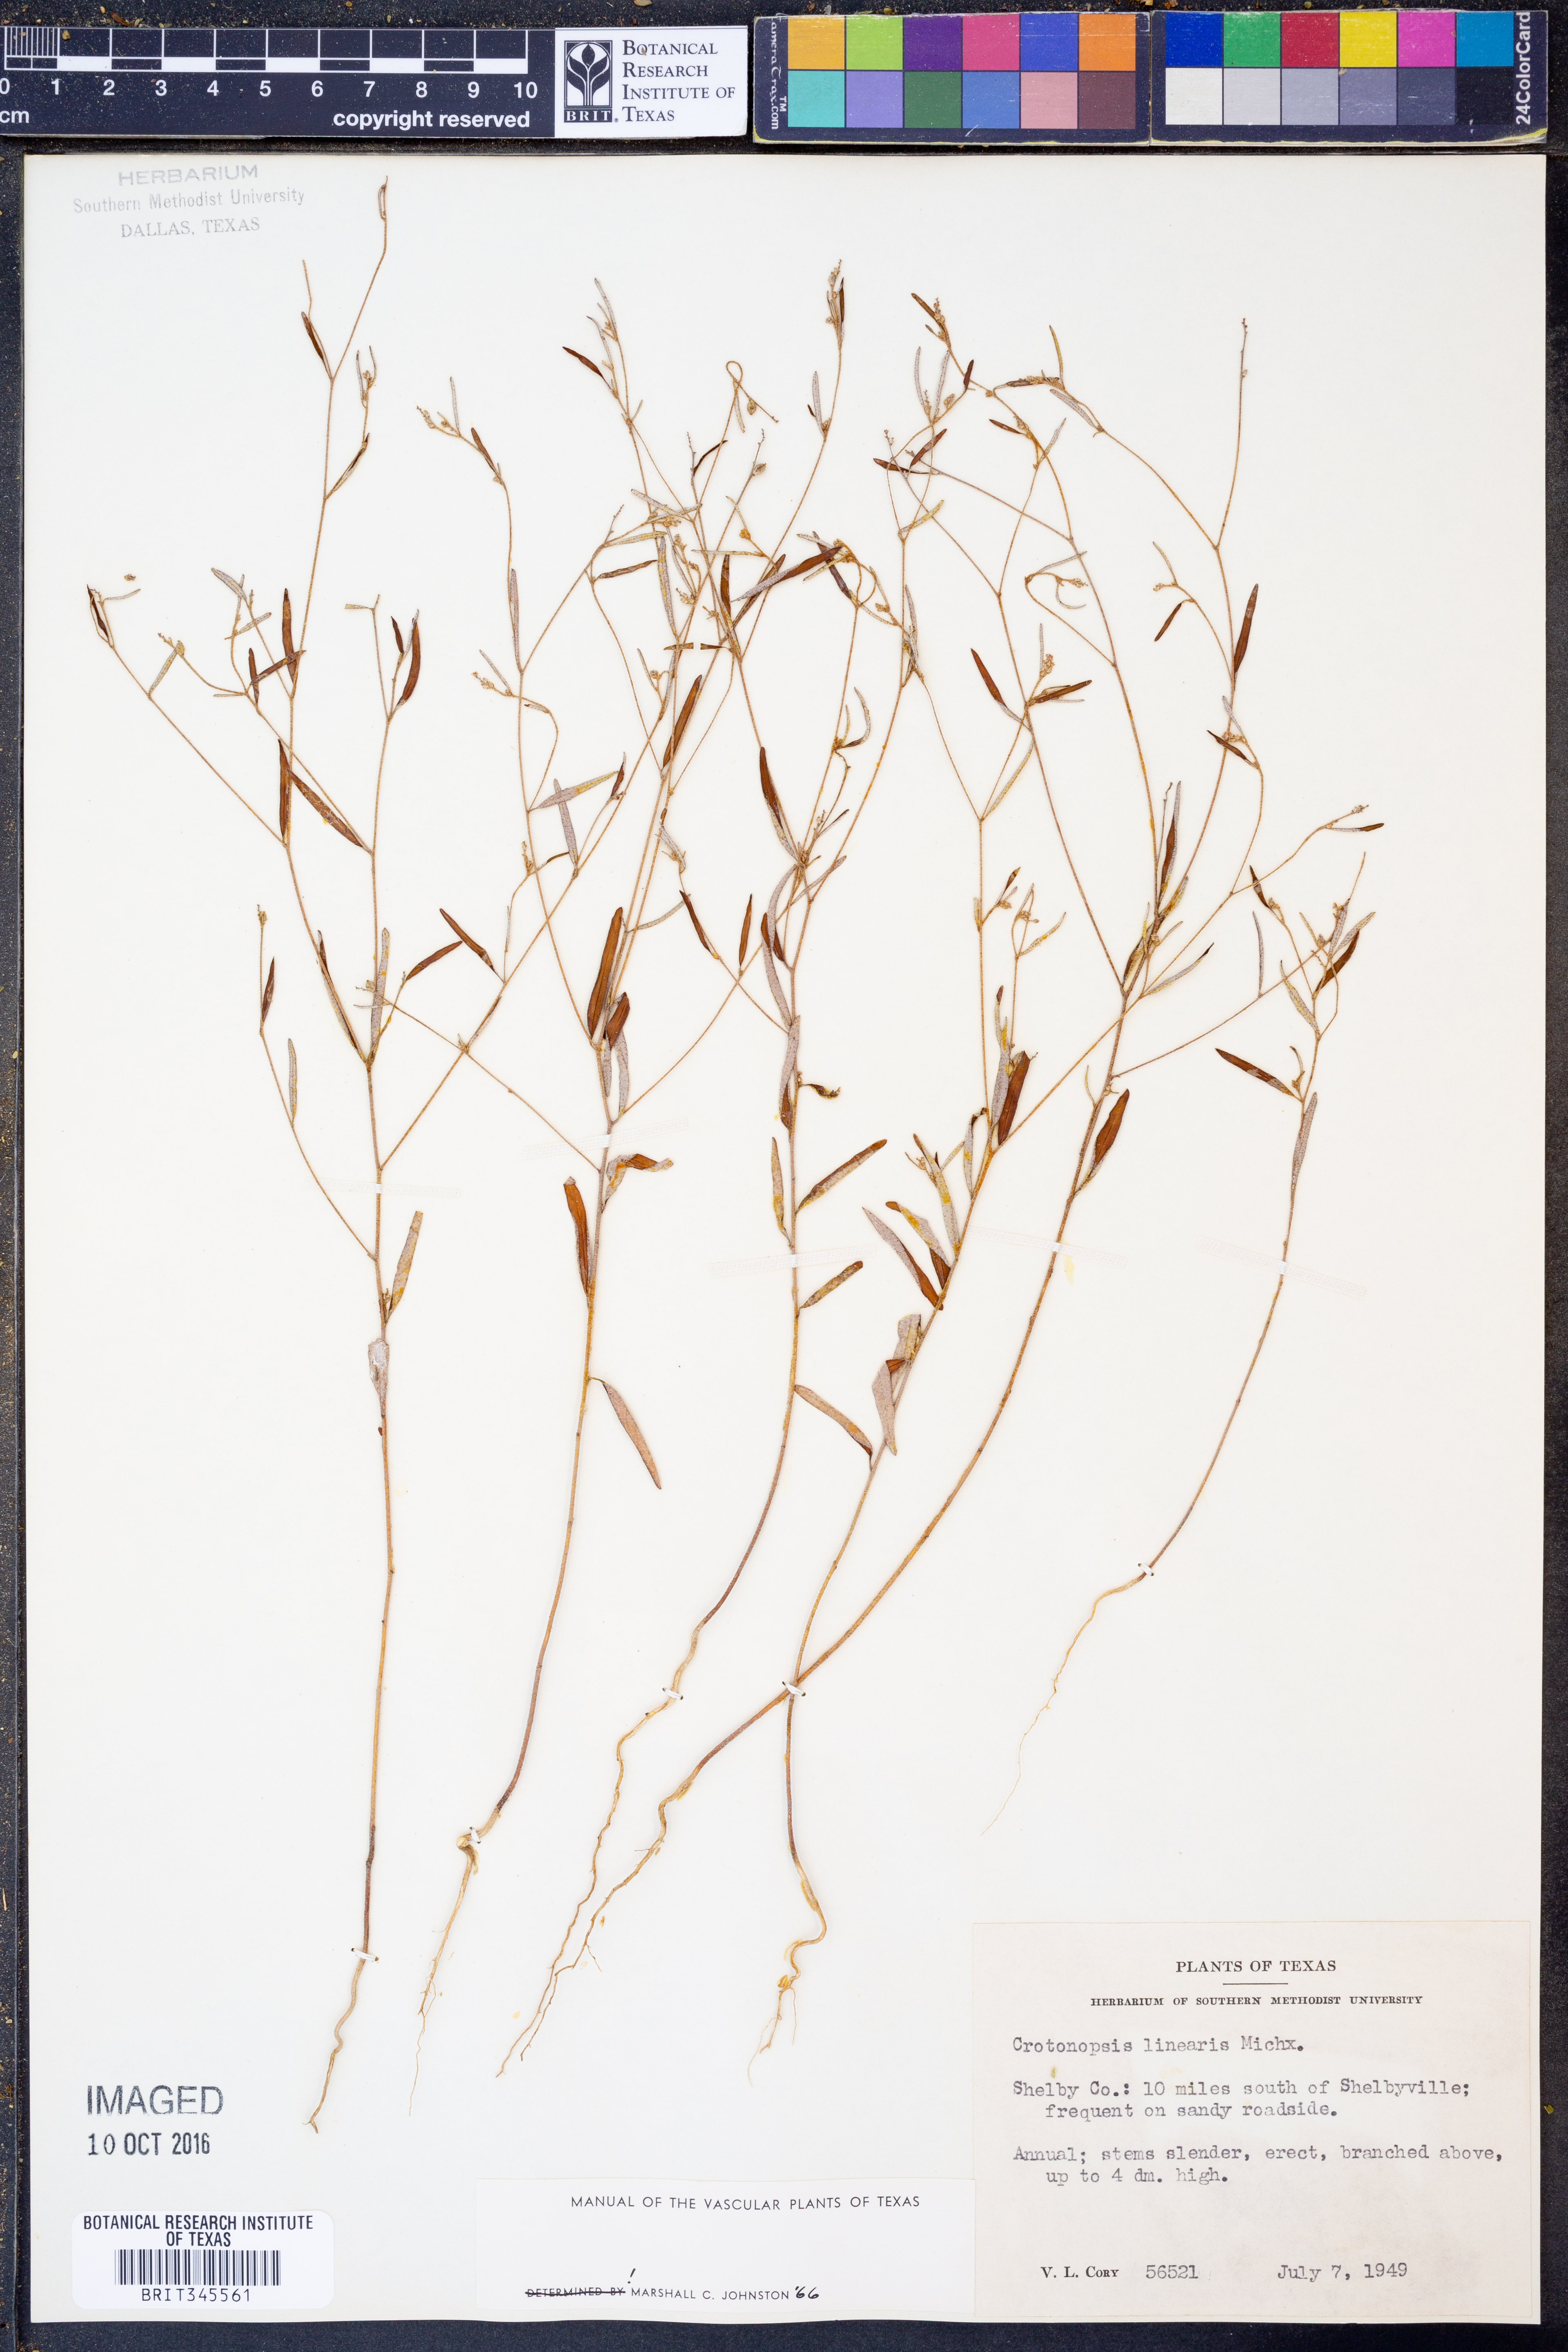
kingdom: Plantae
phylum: Tracheophyta
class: Magnoliopsida
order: Malpighiales
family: Euphorbiaceae
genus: Croton
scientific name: Croton michauxii
